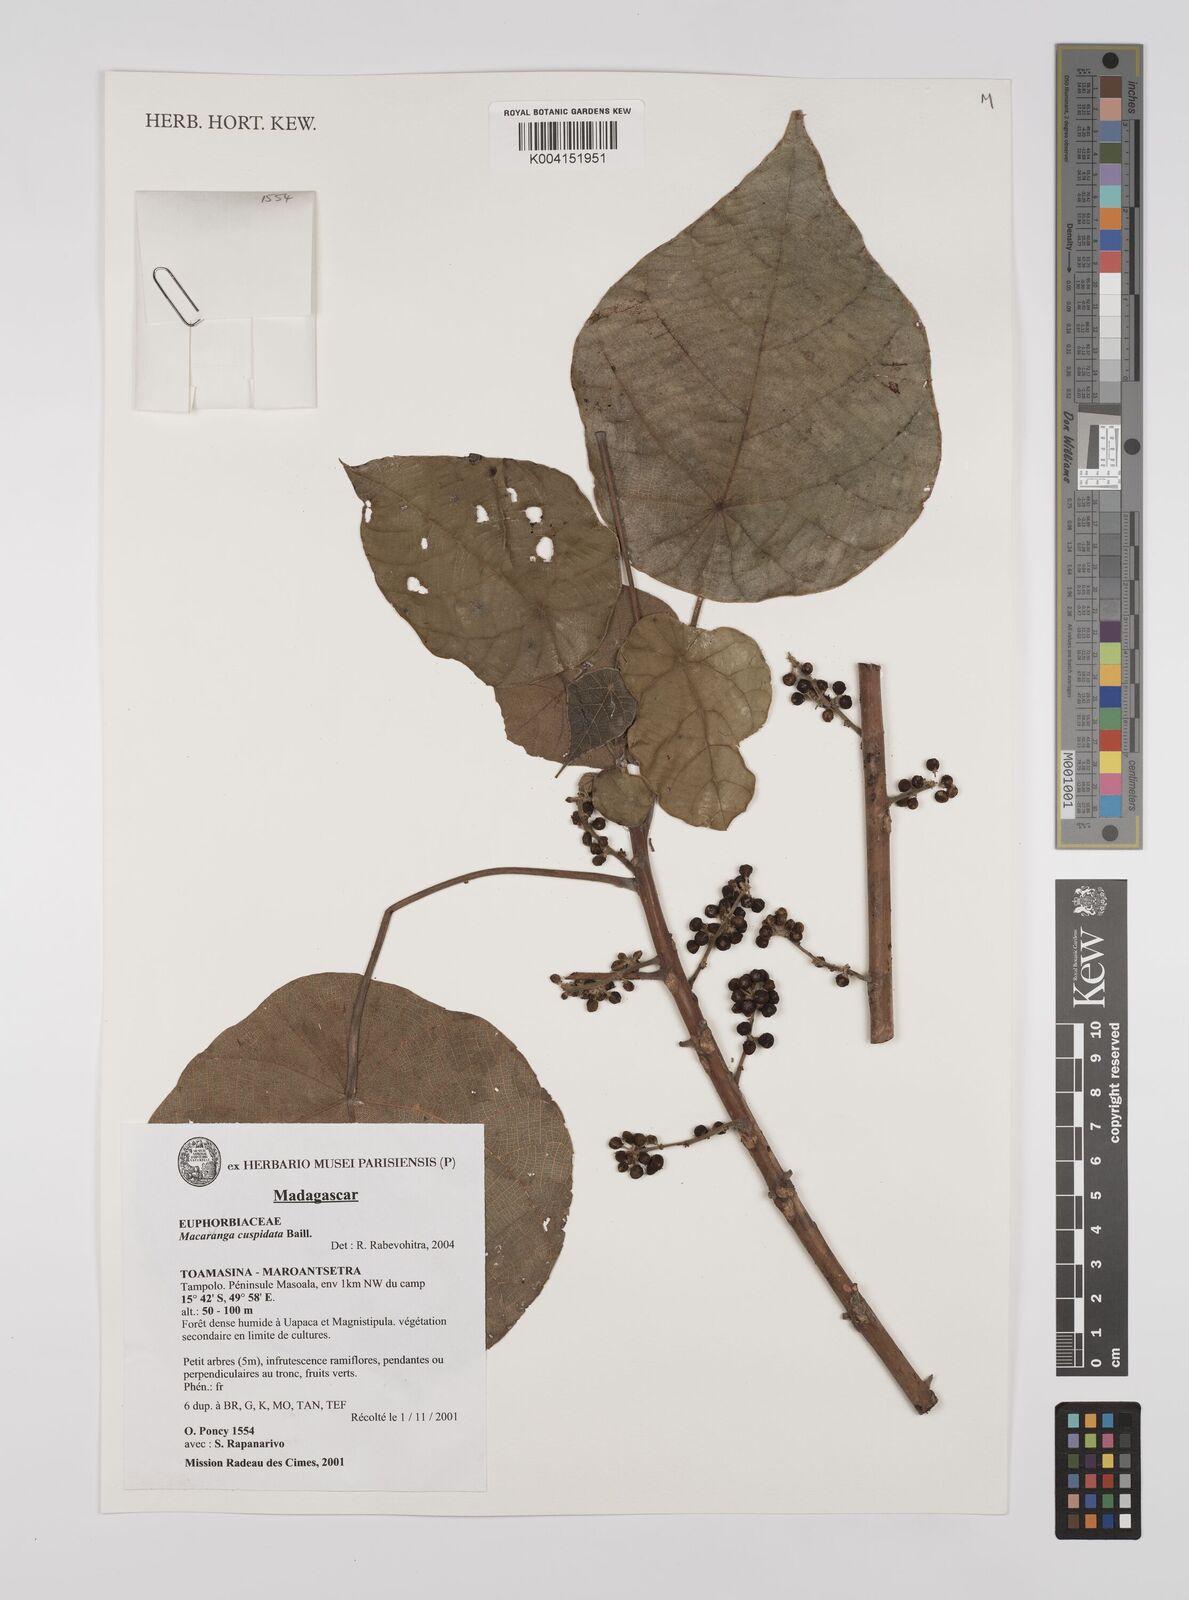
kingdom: Plantae
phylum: Tracheophyta
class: Magnoliopsida
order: Malpighiales
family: Euphorbiaceae
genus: Macaranga
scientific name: Macaranga cuspidata
